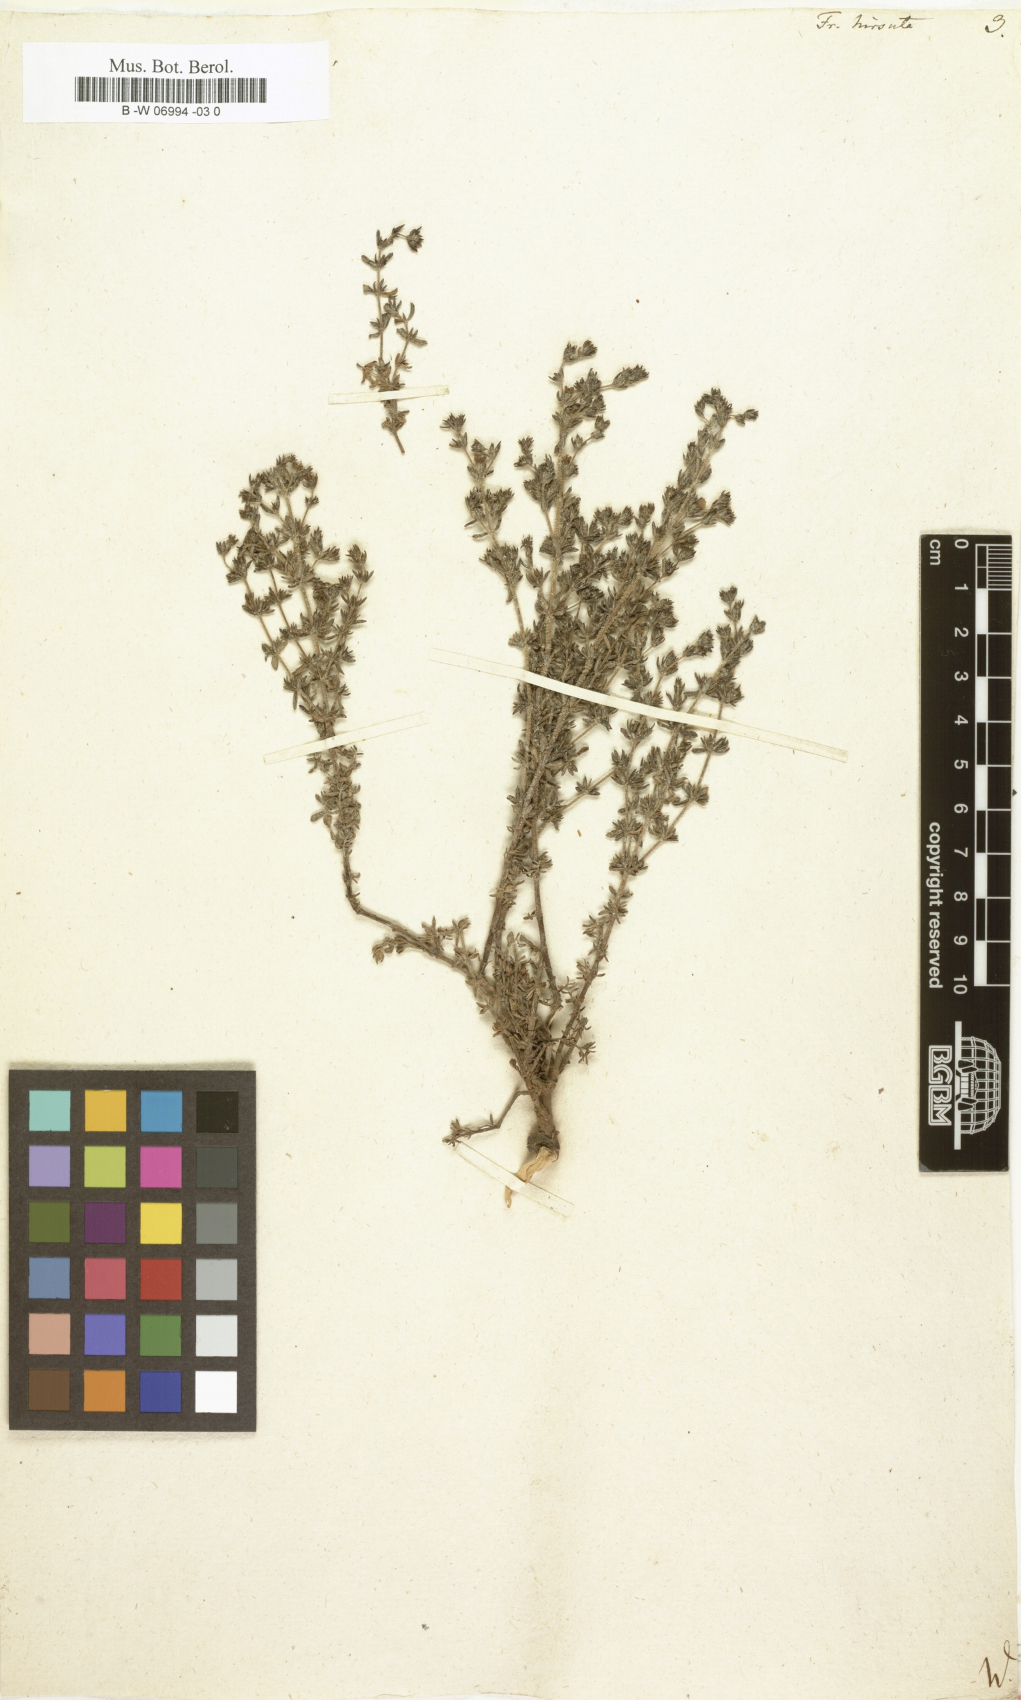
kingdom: Plantae
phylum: Tracheophyta
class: Magnoliopsida
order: Caryophyllales
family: Frankeniaceae
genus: Frankenia
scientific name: Frankenia hirsuta
